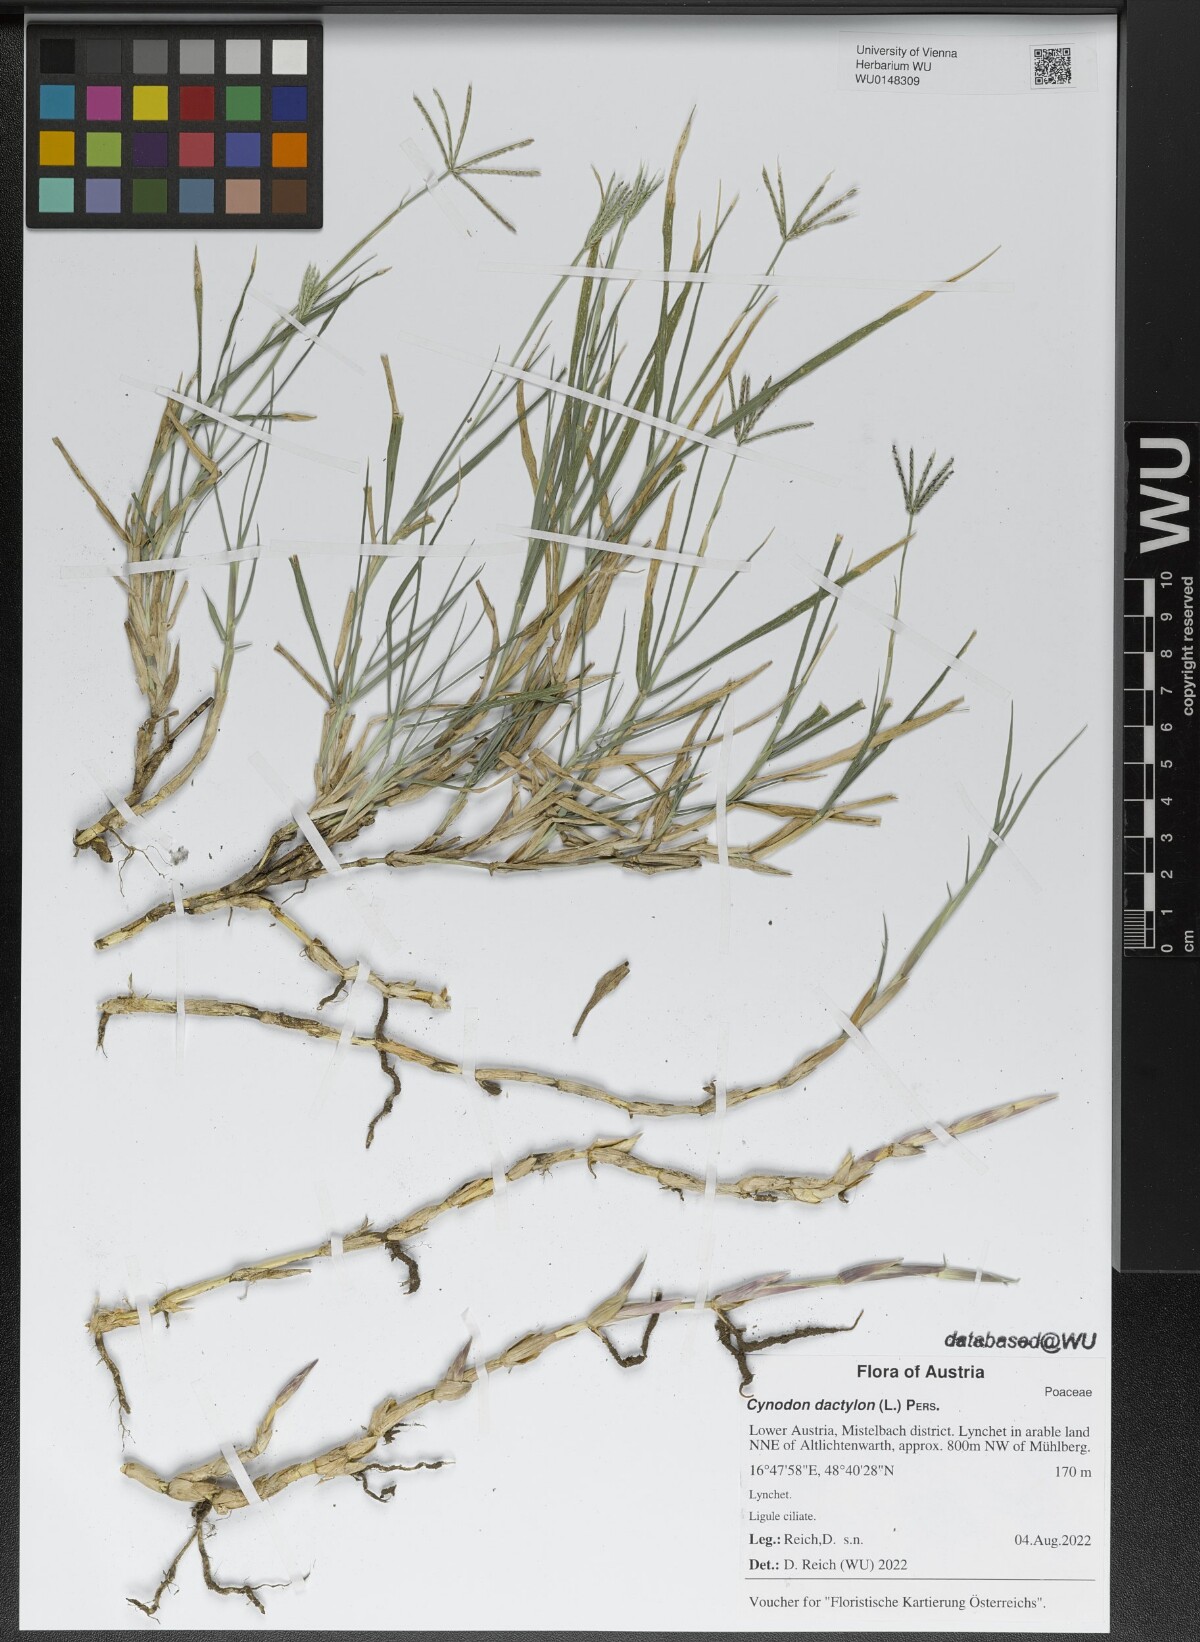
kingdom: Plantae
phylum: Tracheophyta
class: Liliopsida
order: Poales
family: Poaceae
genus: Cynodon
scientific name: Cynodon dactylon
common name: Bermuda grass
